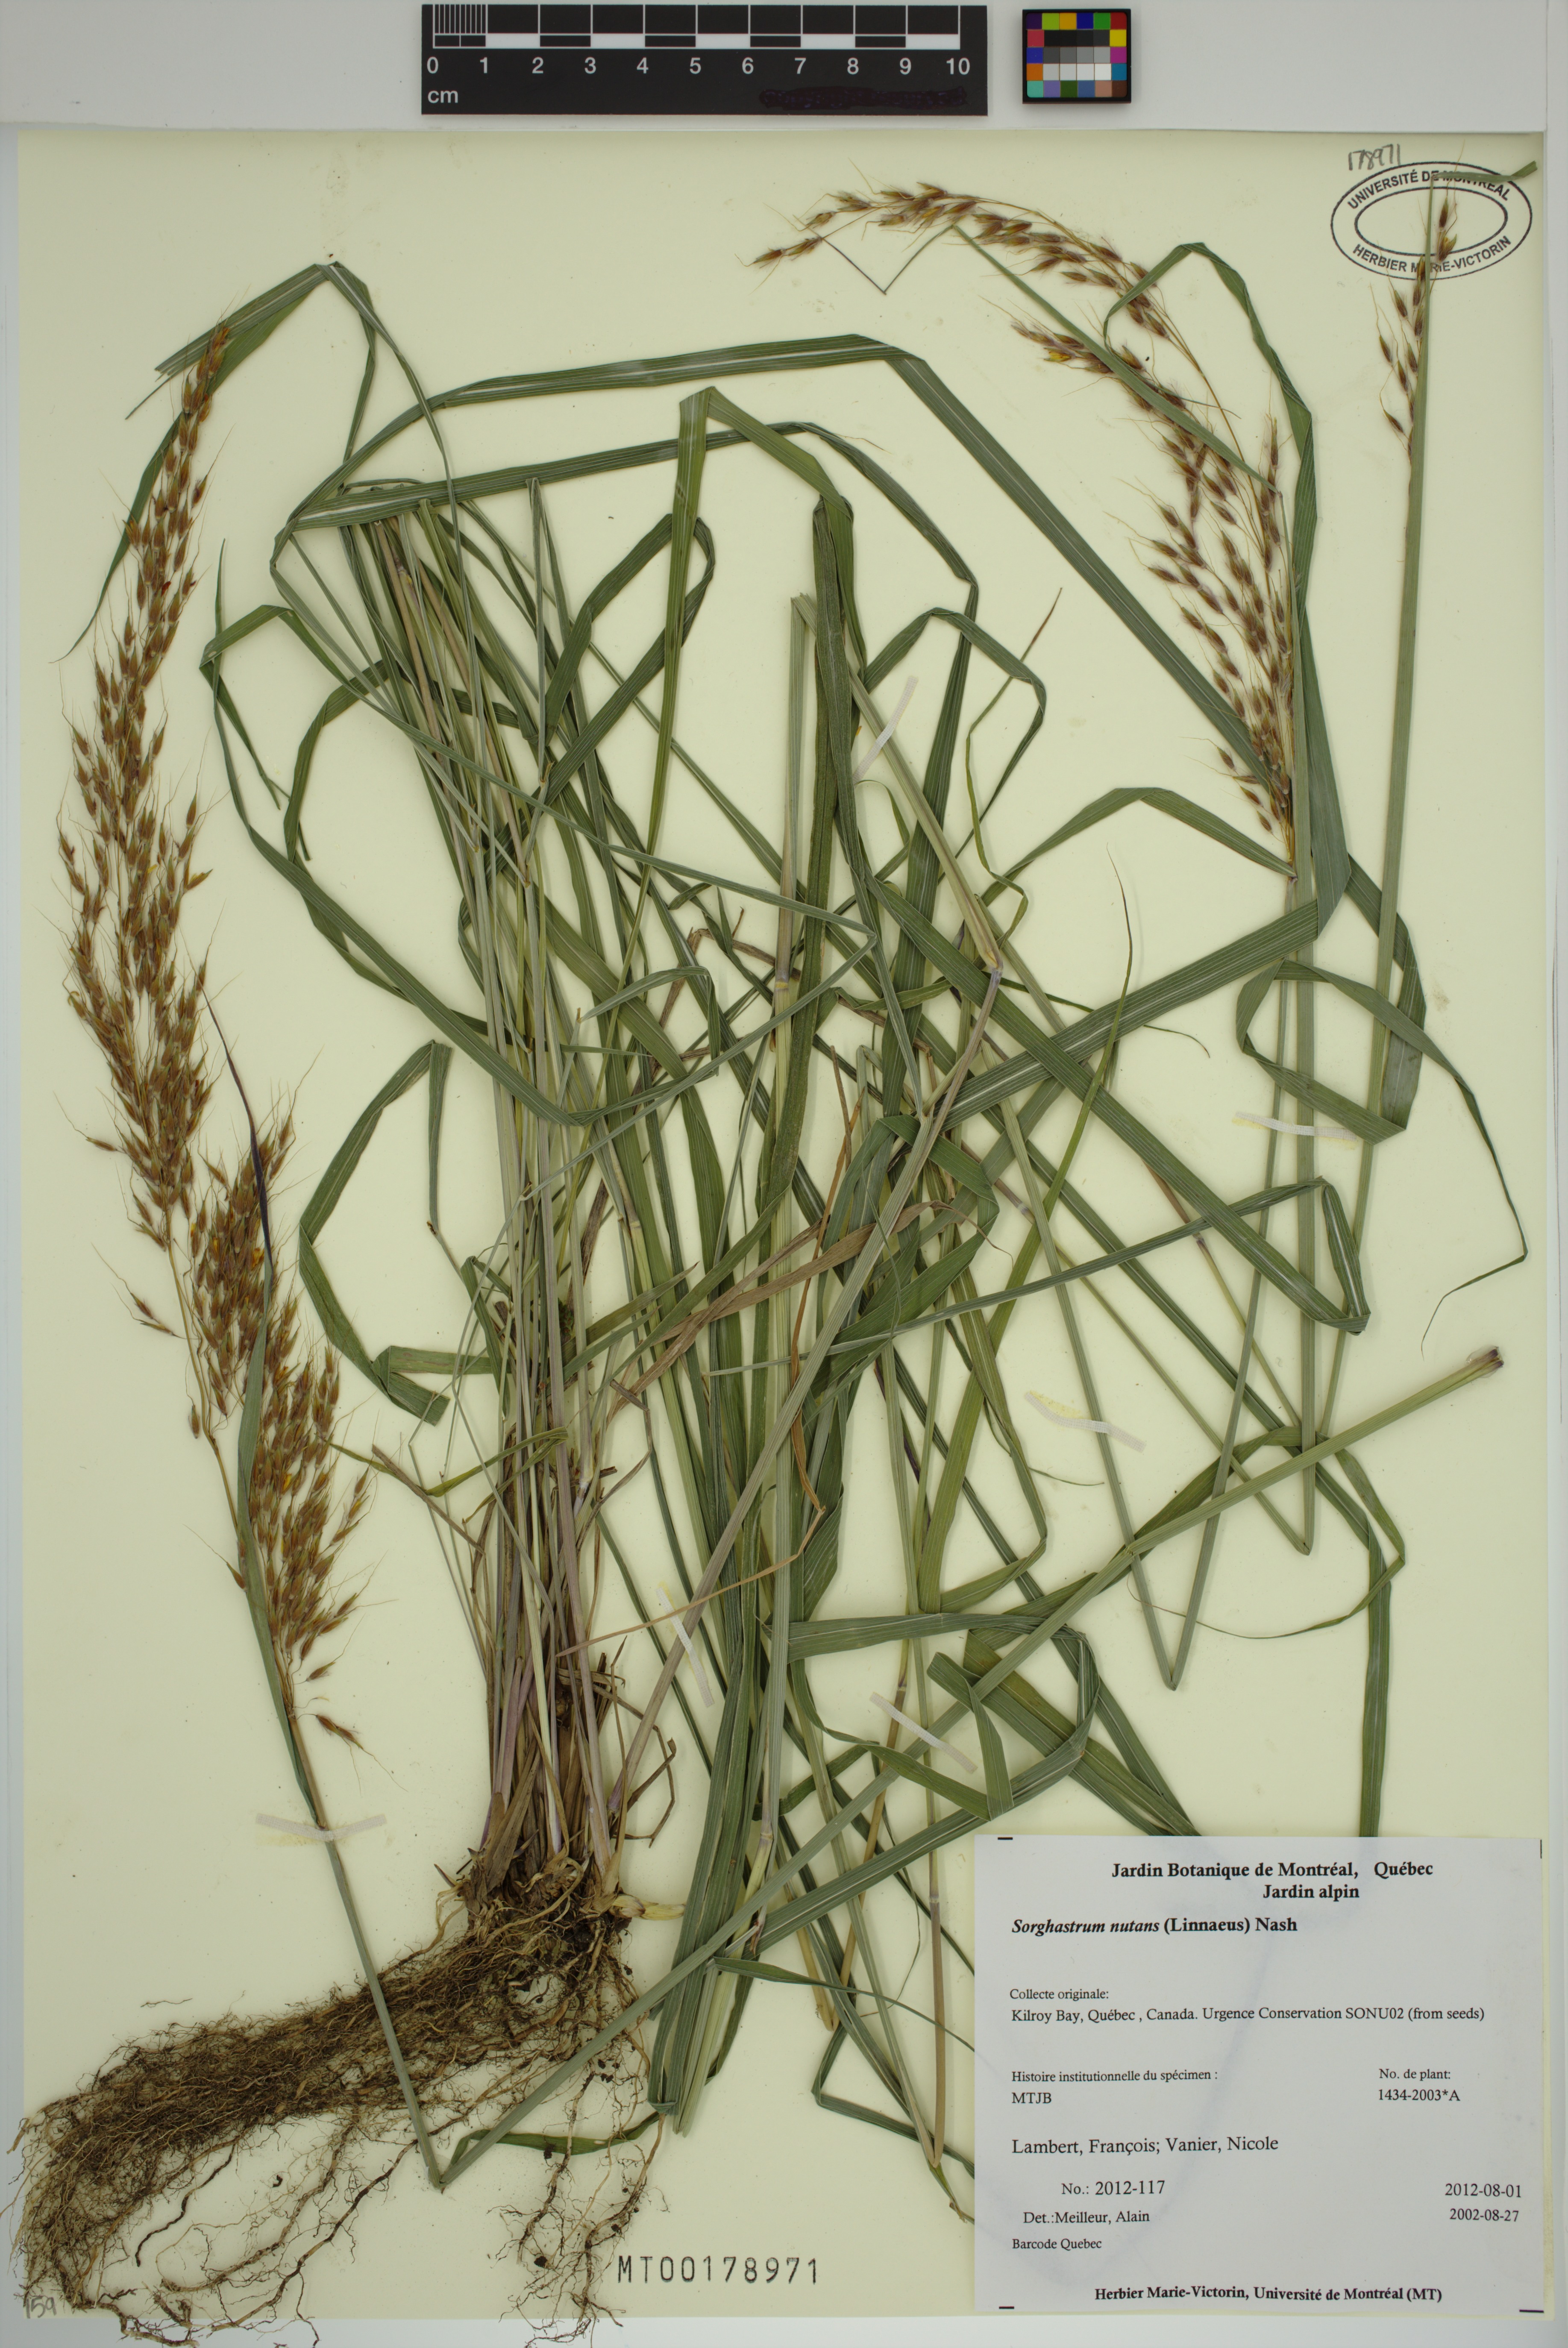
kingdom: Plantae
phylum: Tracheophyta
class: Liliopsida
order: Poales
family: Poaceae
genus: Sorghastrum
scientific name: Sorghastrum nutans
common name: Indian grass
